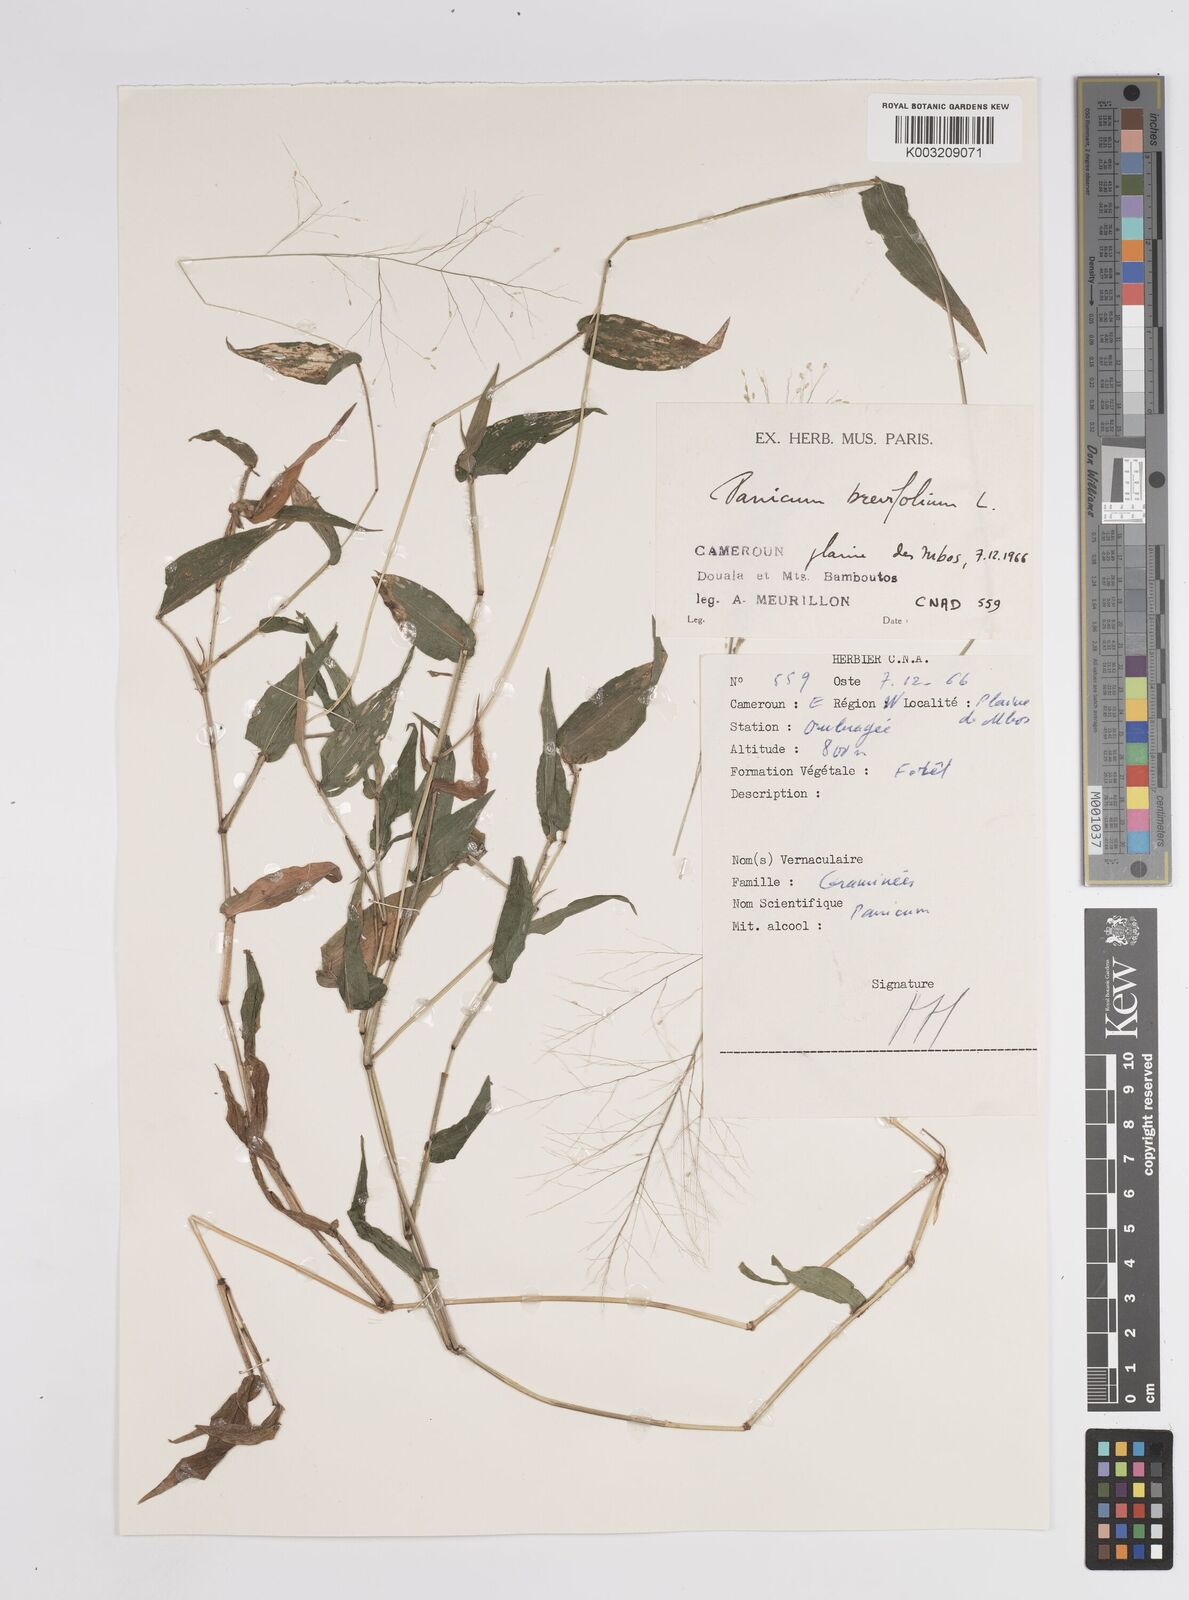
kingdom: Plantae
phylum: Tracheophyta
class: Liliopsida
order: Poales
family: Poaceae
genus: Panicum
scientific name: Panicum brevifolium
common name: Shortleaf panic grass
